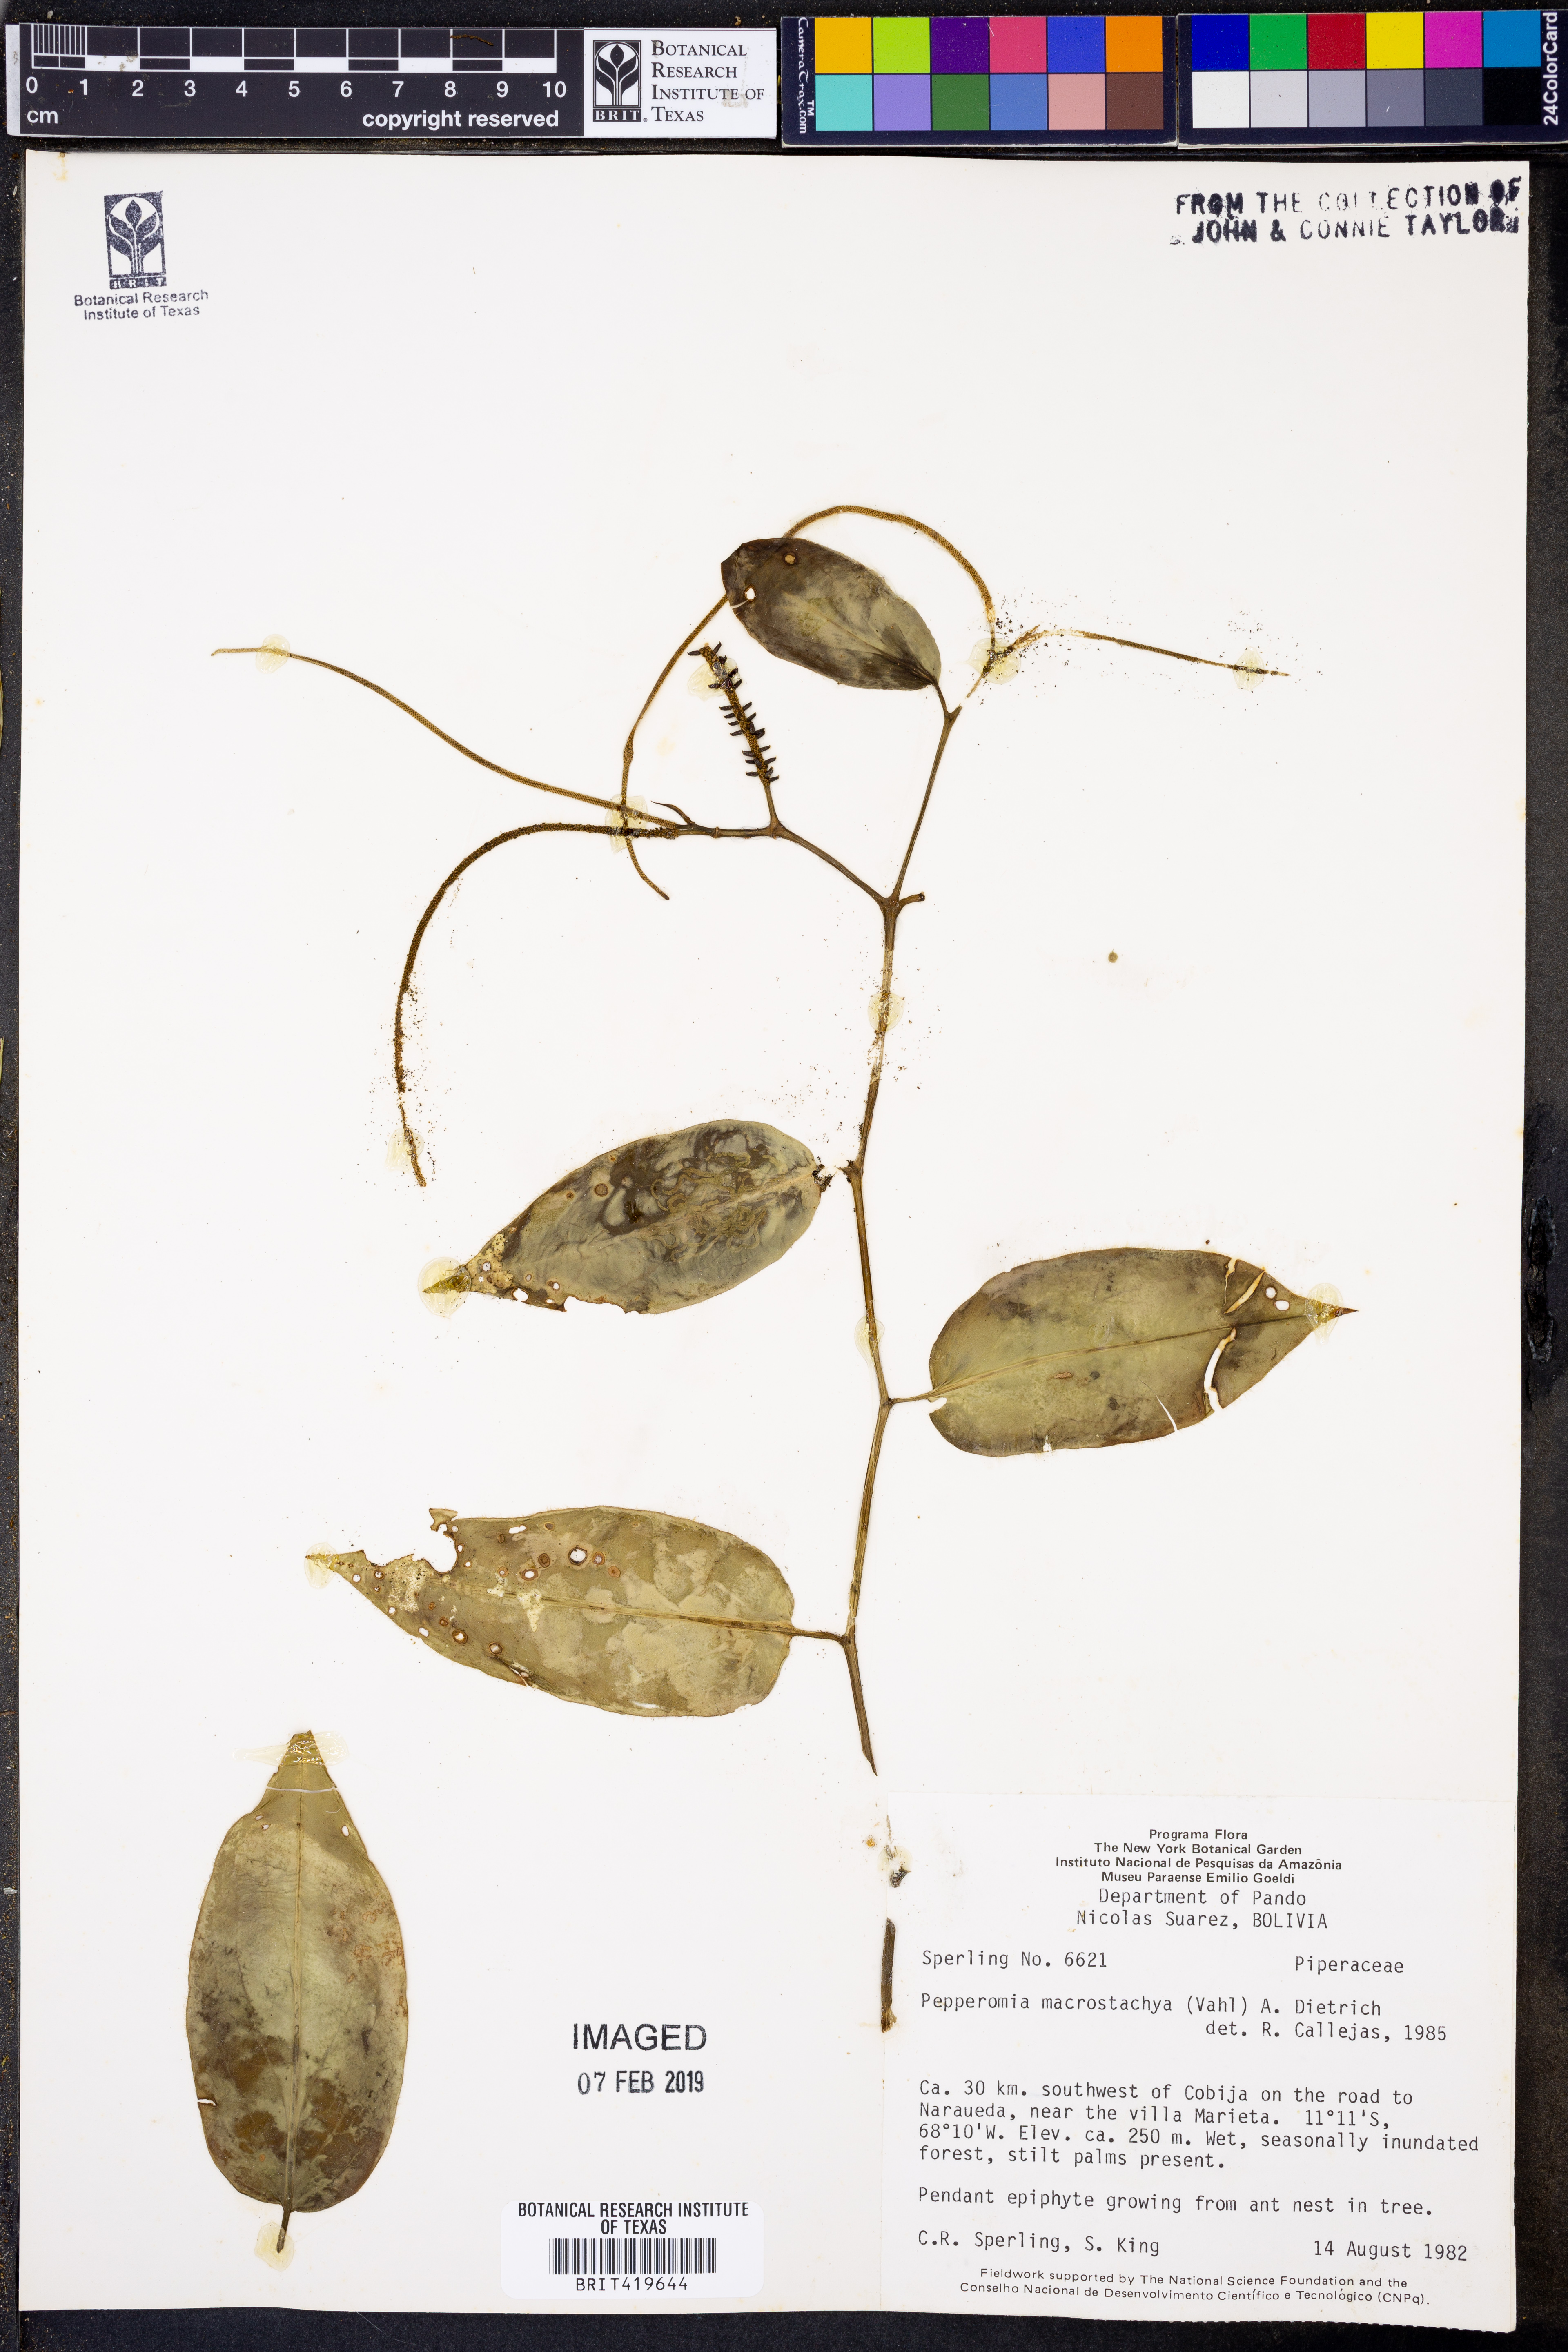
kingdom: Plantae
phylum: Tracheophyta
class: Magnoliopsida
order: Piperales
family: Piperaceae
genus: Peperomia
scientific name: Peperomia macrostachyos
